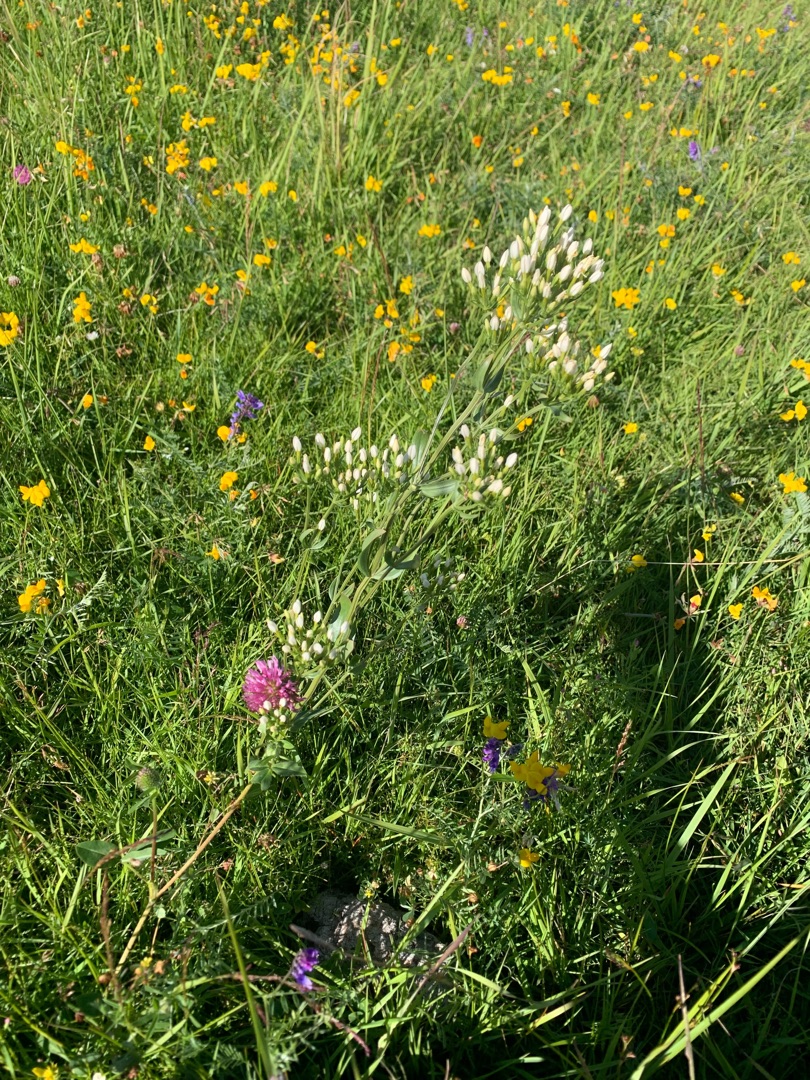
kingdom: Plantae
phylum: Tracheophyta
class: Magnoliopsida
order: Gentianales
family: Gentianaceae
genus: Centaurium
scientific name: Centaurium erythraea
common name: Mark-tusindgylden
